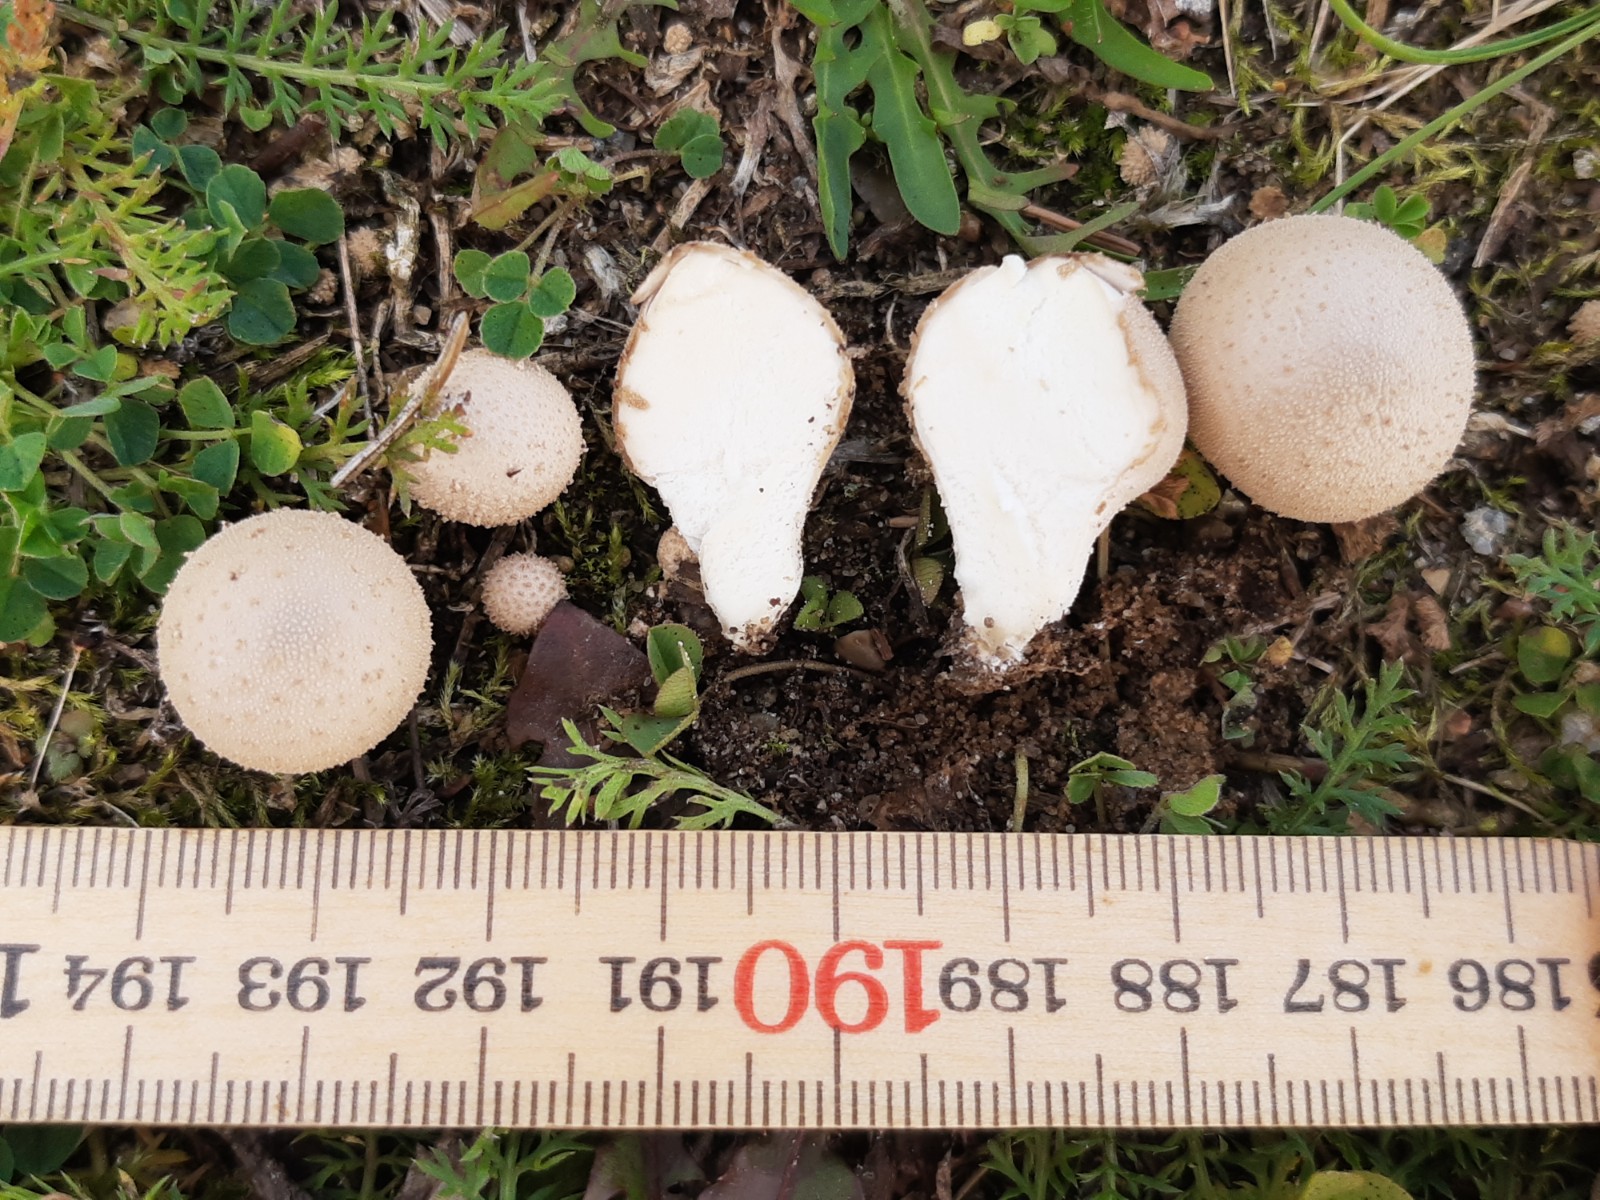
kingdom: Fungi
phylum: Basidiomycota
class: Agaricomycetes
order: Agaricales
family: Lycoperdaceae
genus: Lycoperdon
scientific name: Lycoperdon lividum
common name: mark-støvbold
